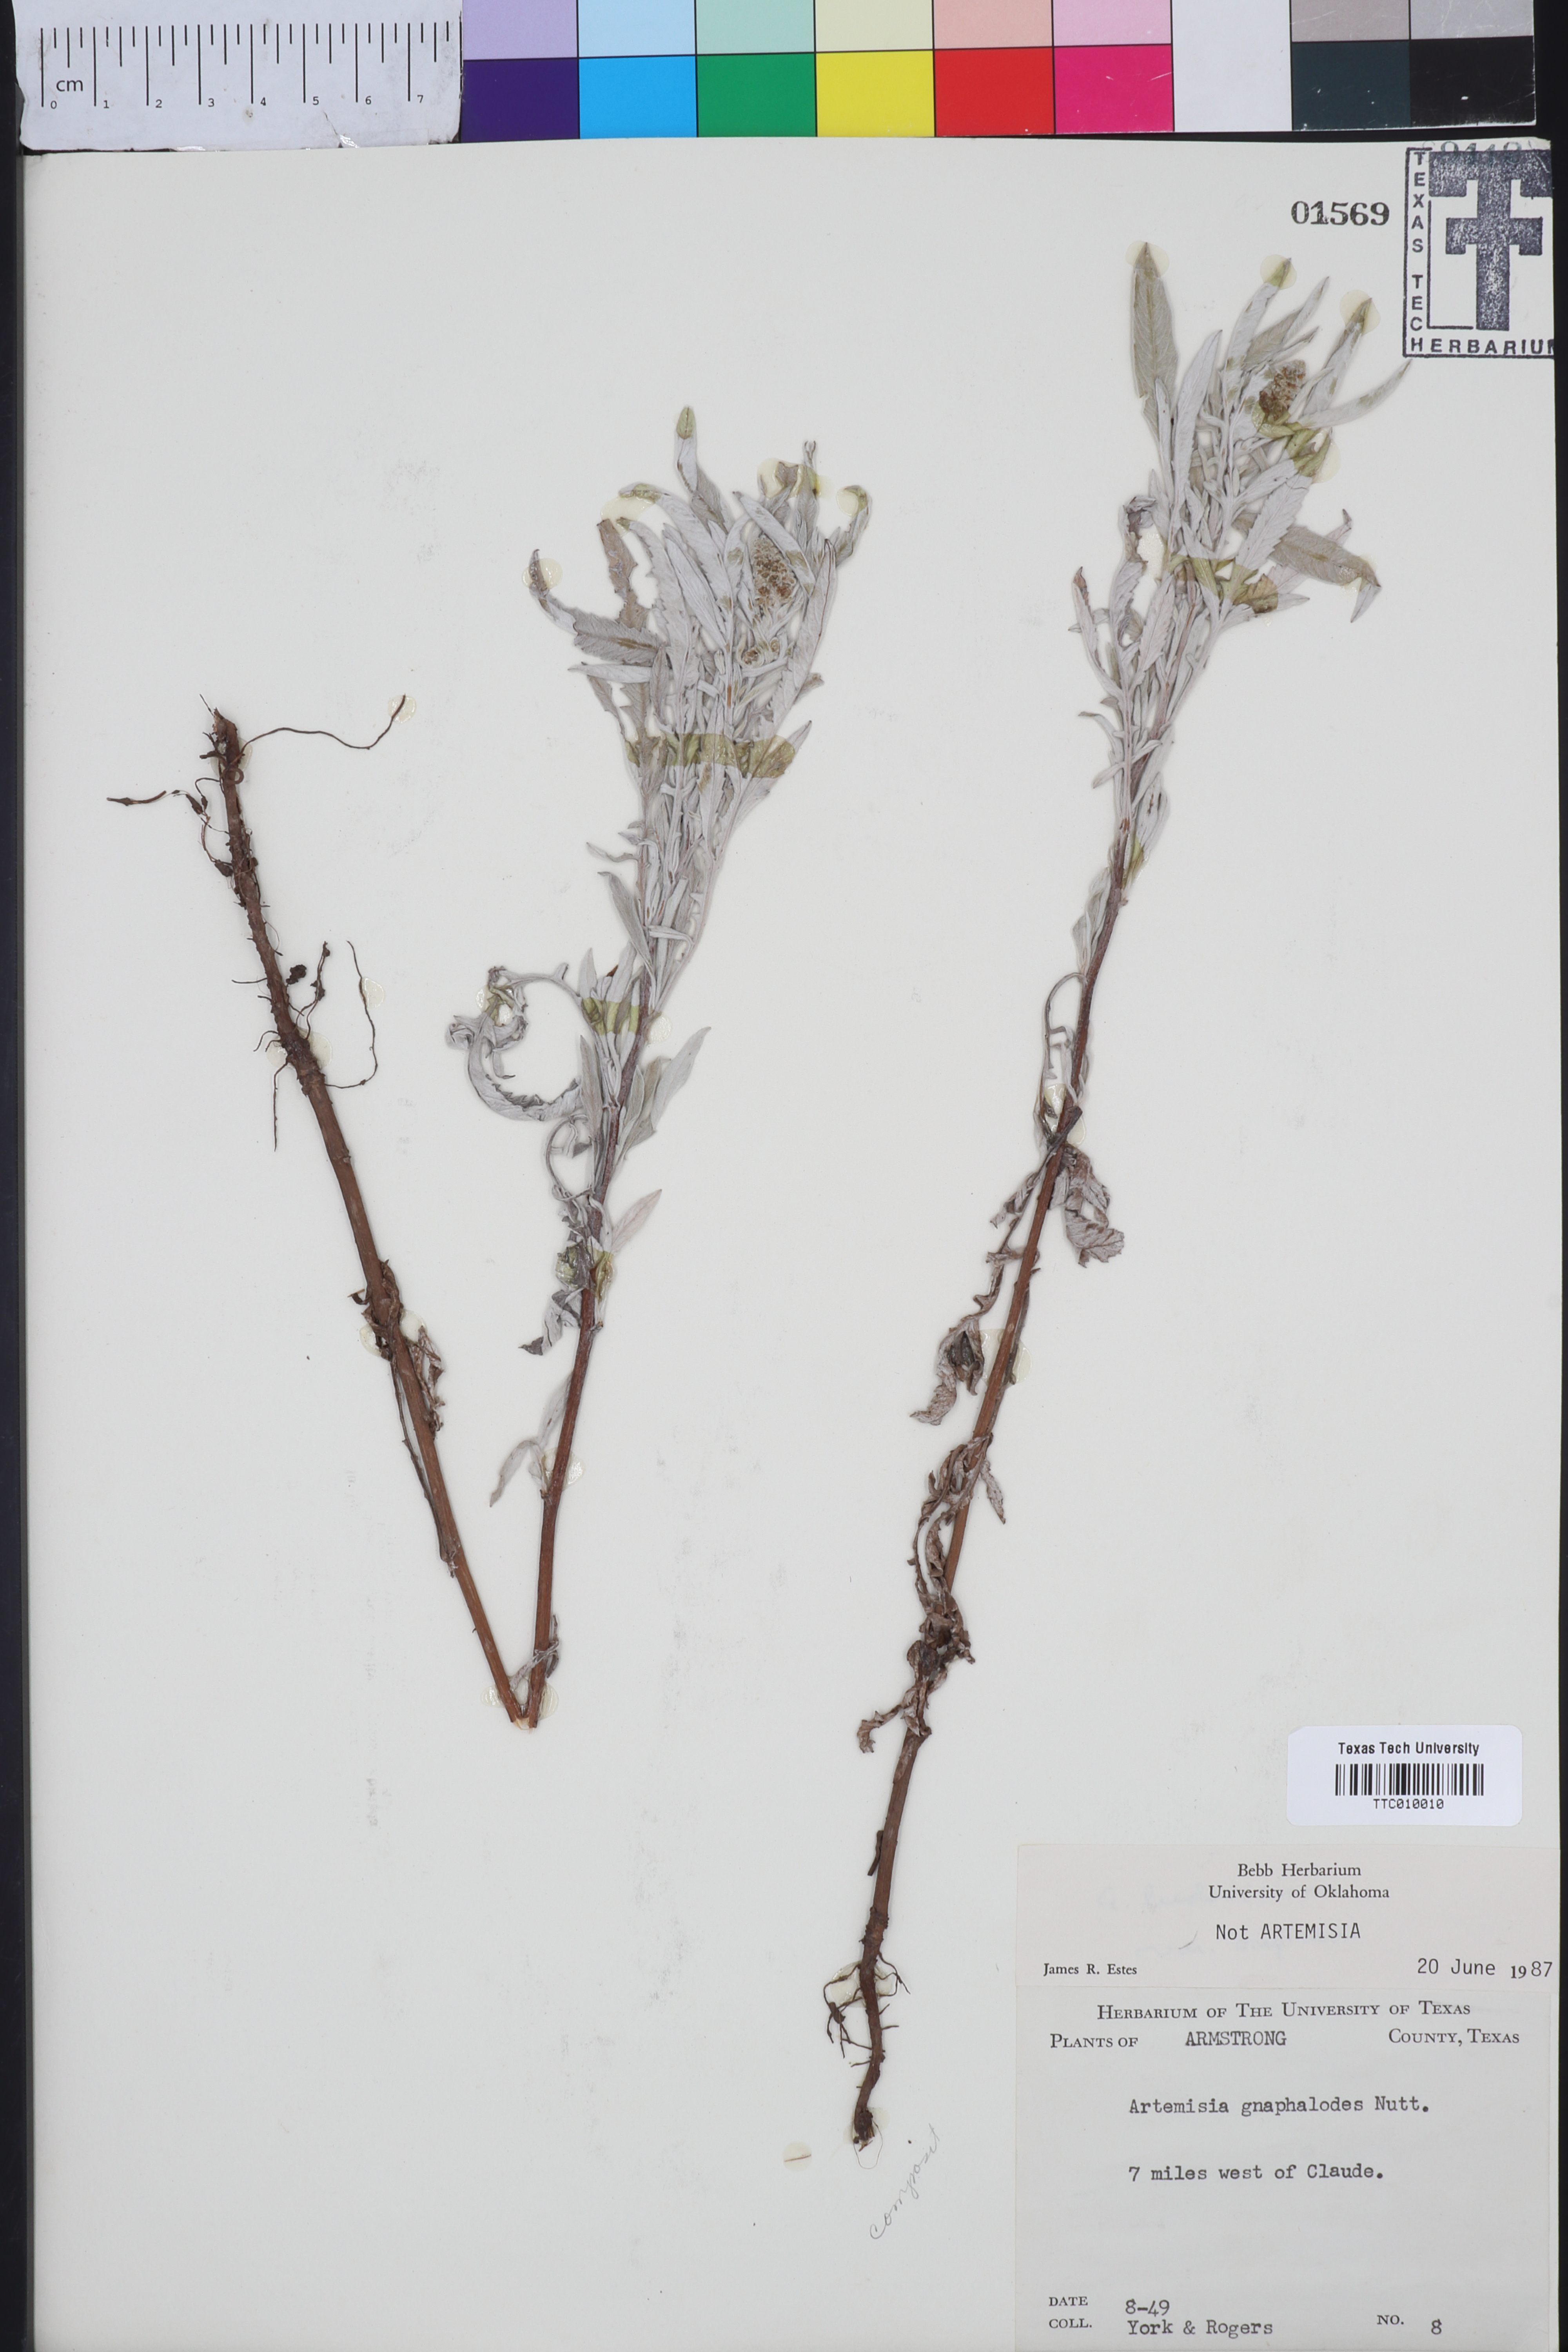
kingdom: Plantae
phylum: Tracheophyta
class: Magnoliopsida
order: Asterales
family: Asteraceae
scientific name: Asteraceae
